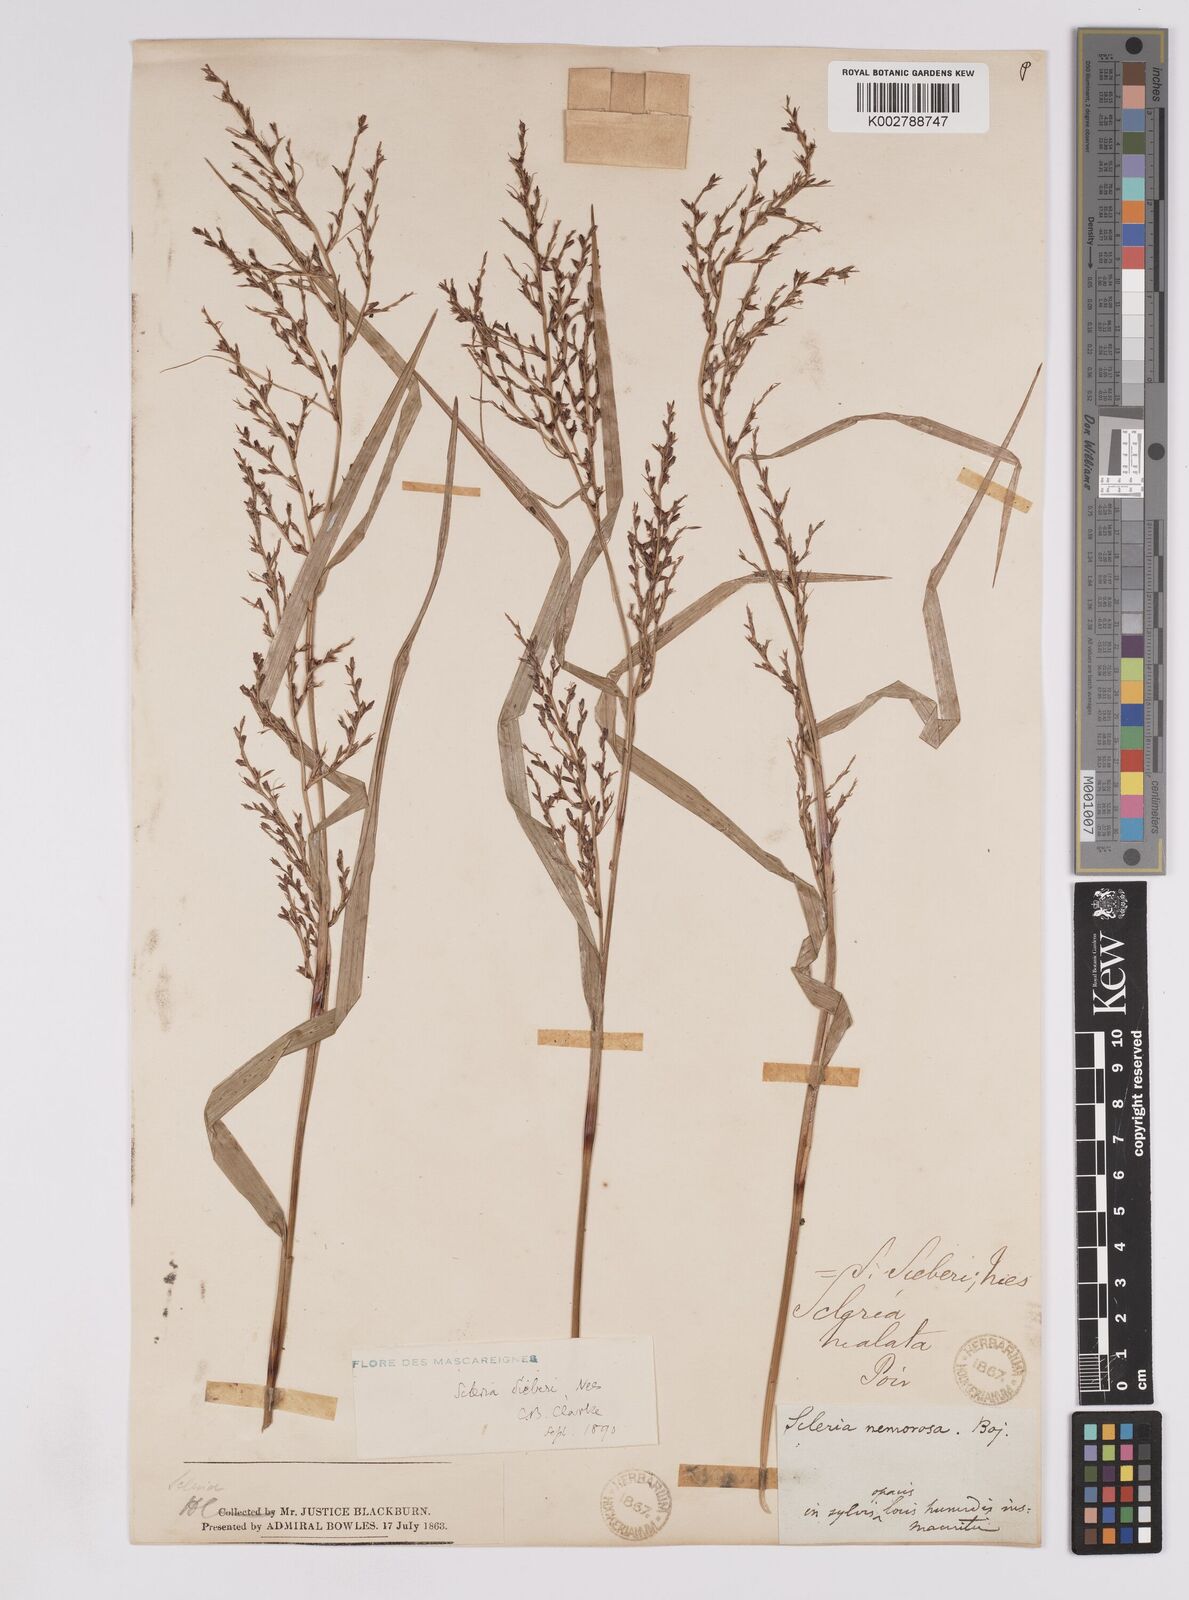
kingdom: Plantae
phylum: Tracheophyta
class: Liliopsida
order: Poales
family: Cyperaceae
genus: Scleria
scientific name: Scleria gaertneri
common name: Cortadera blanca
